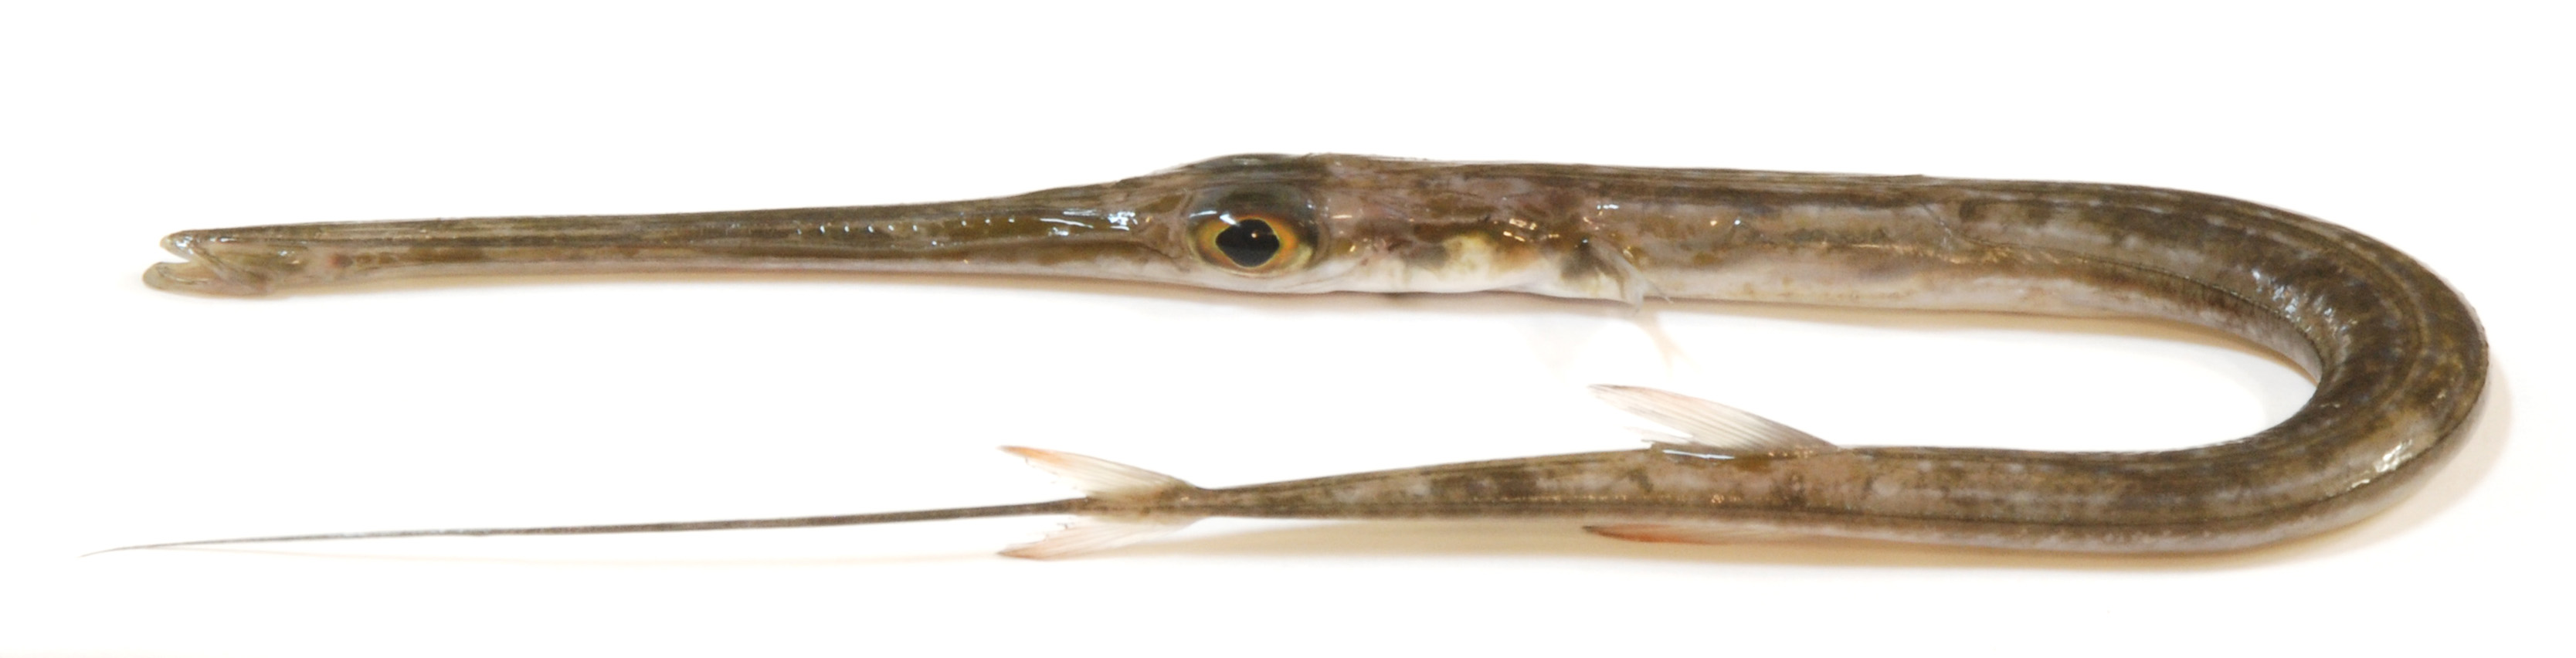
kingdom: Animalia
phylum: Chordata
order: Syngnathiformes
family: Fistulariidae
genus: Fistularia
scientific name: Fistularia commersonii
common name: Bluespotted cornetfish
